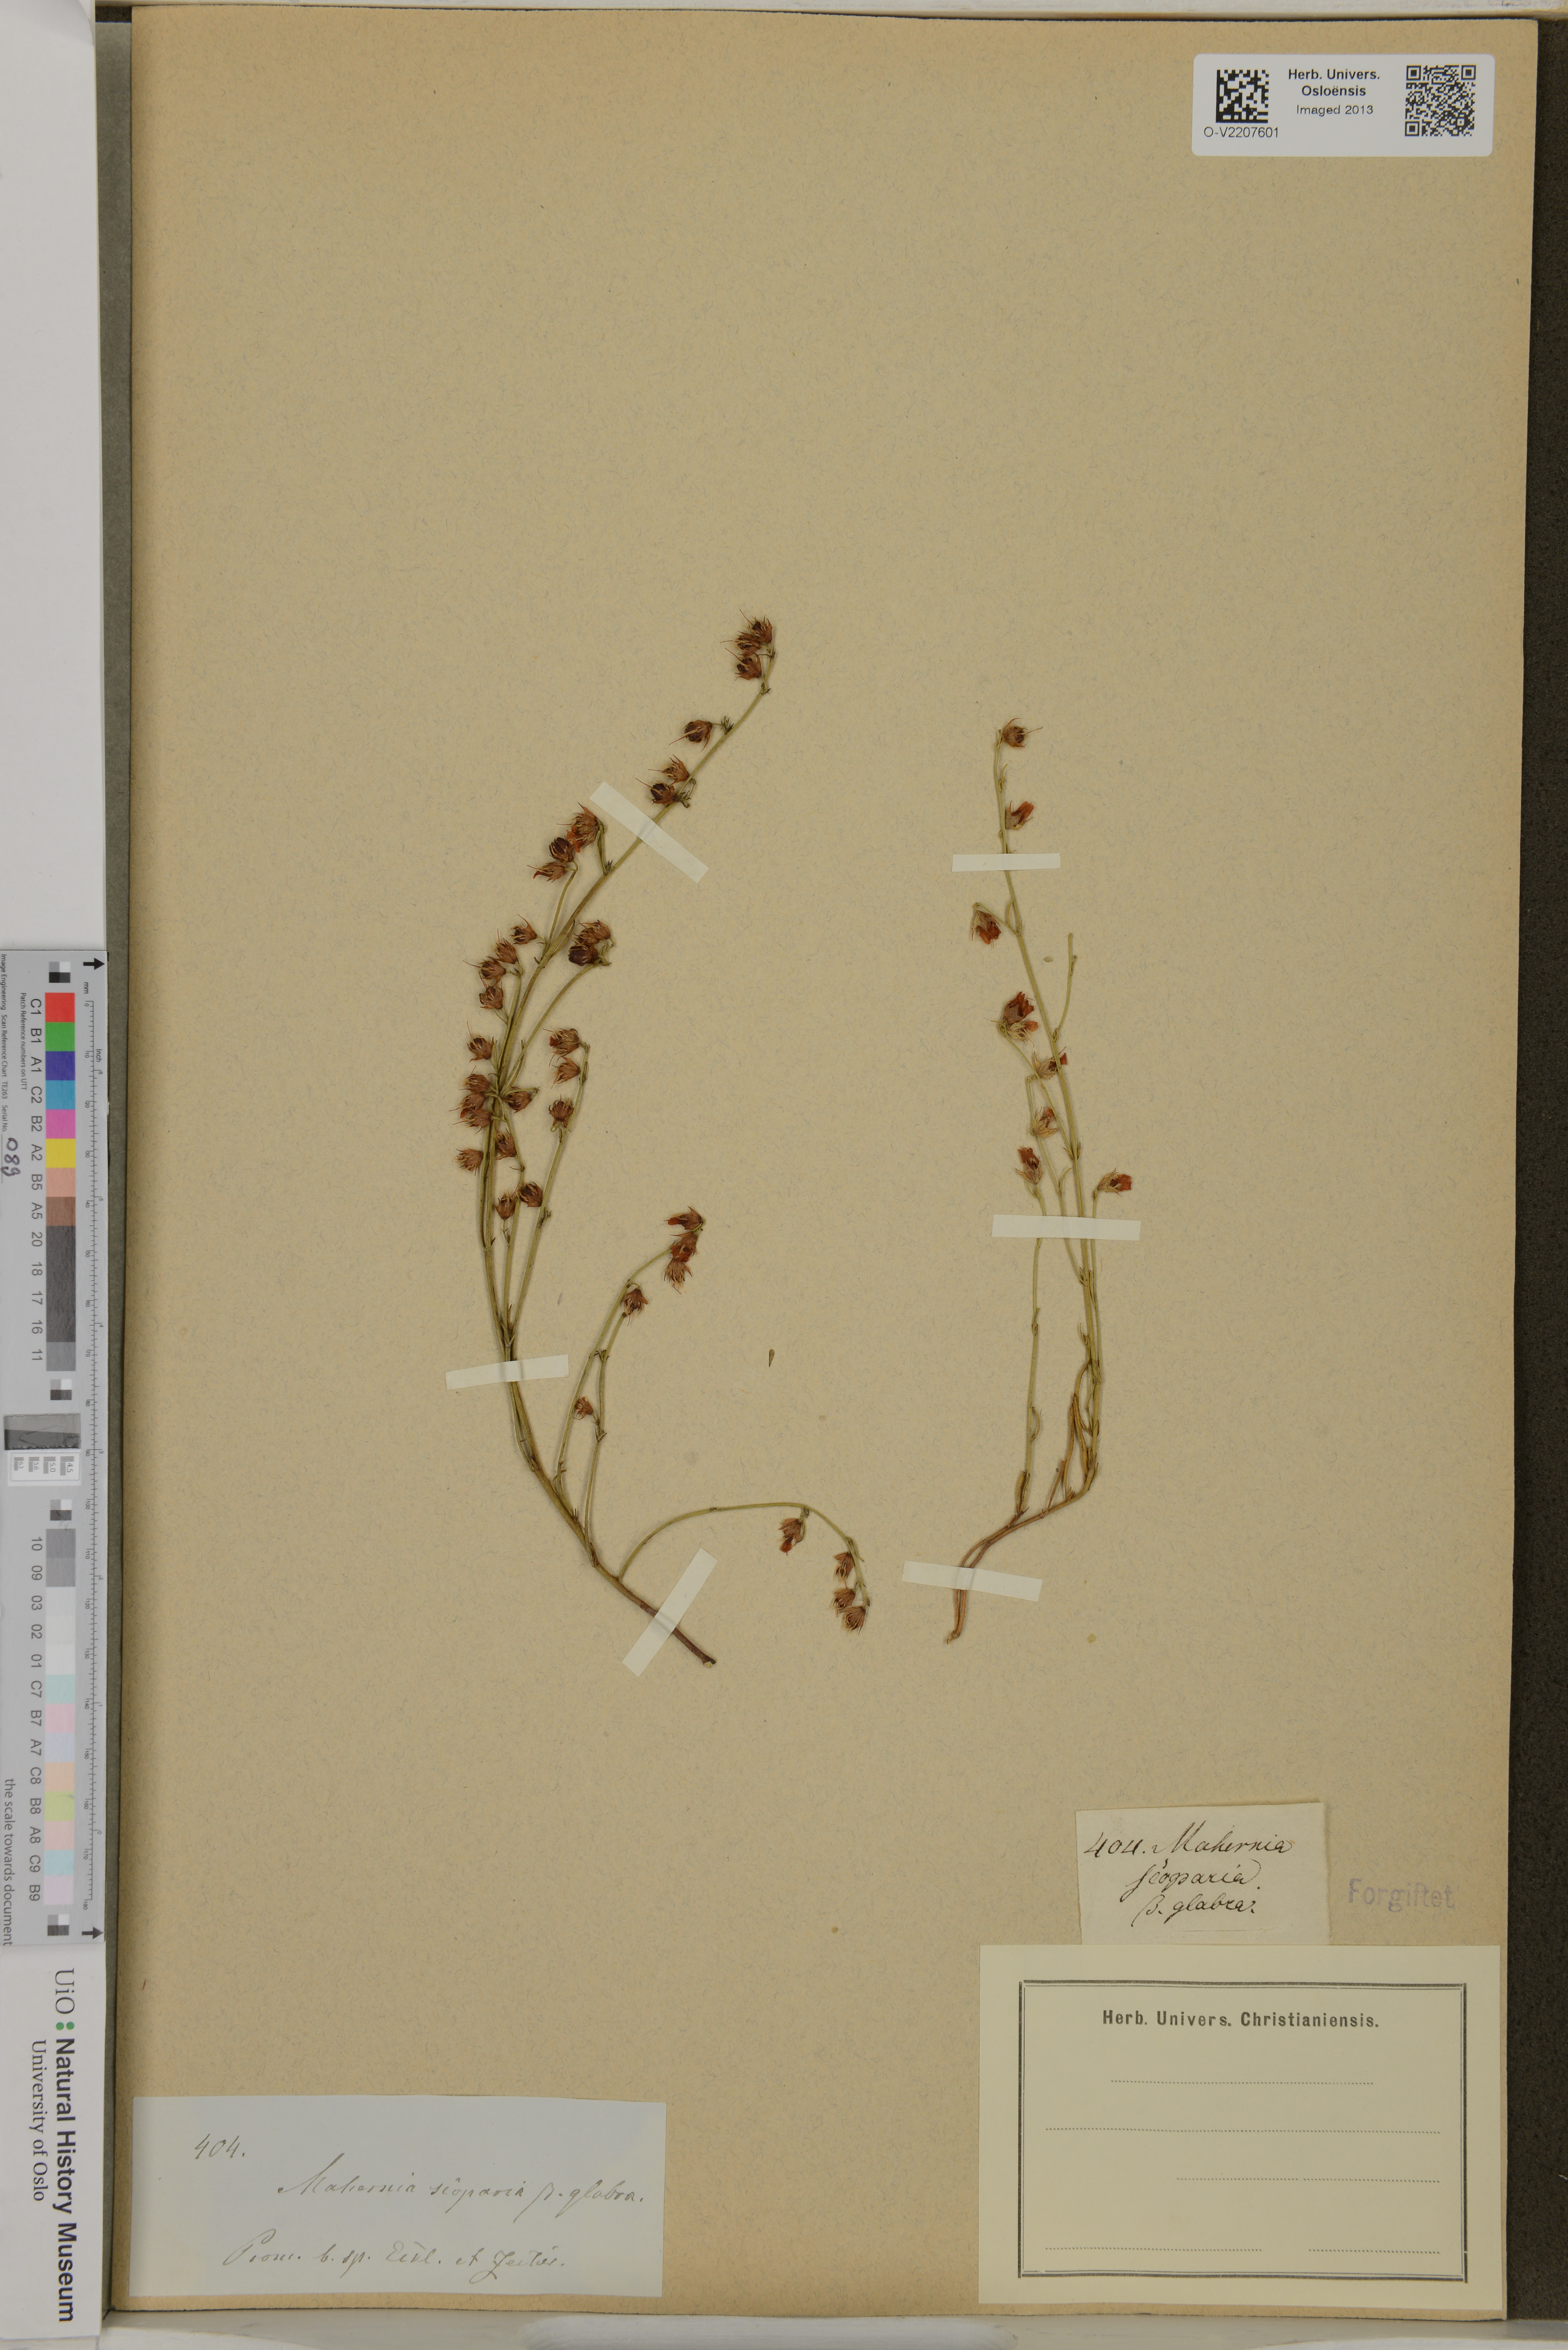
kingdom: Plantae
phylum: Tracheophyta
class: Magnoliopsida
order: Malvales
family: Malvaceae
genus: Hermannia
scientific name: Hermannia linifolia
